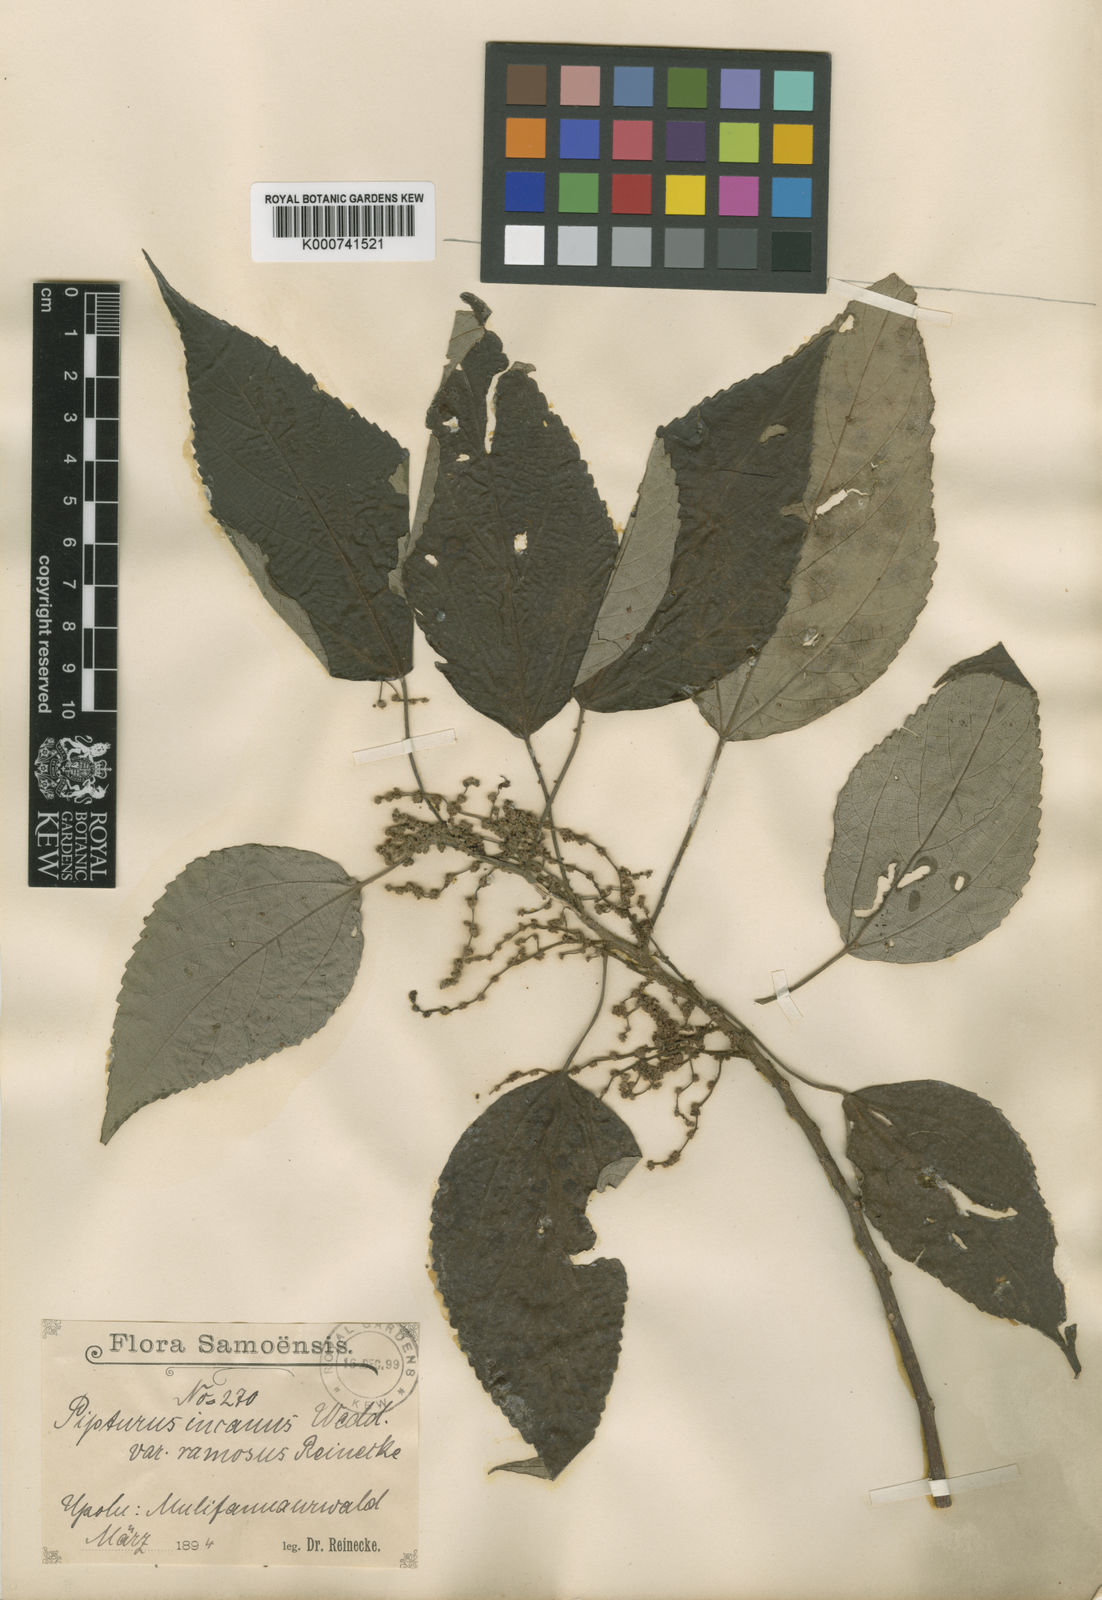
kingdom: Plantae
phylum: Tracheophyta
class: Magnoliopsida
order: Rosales
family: Urticaceae
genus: Pipturus
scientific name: Pipturus argenteus
